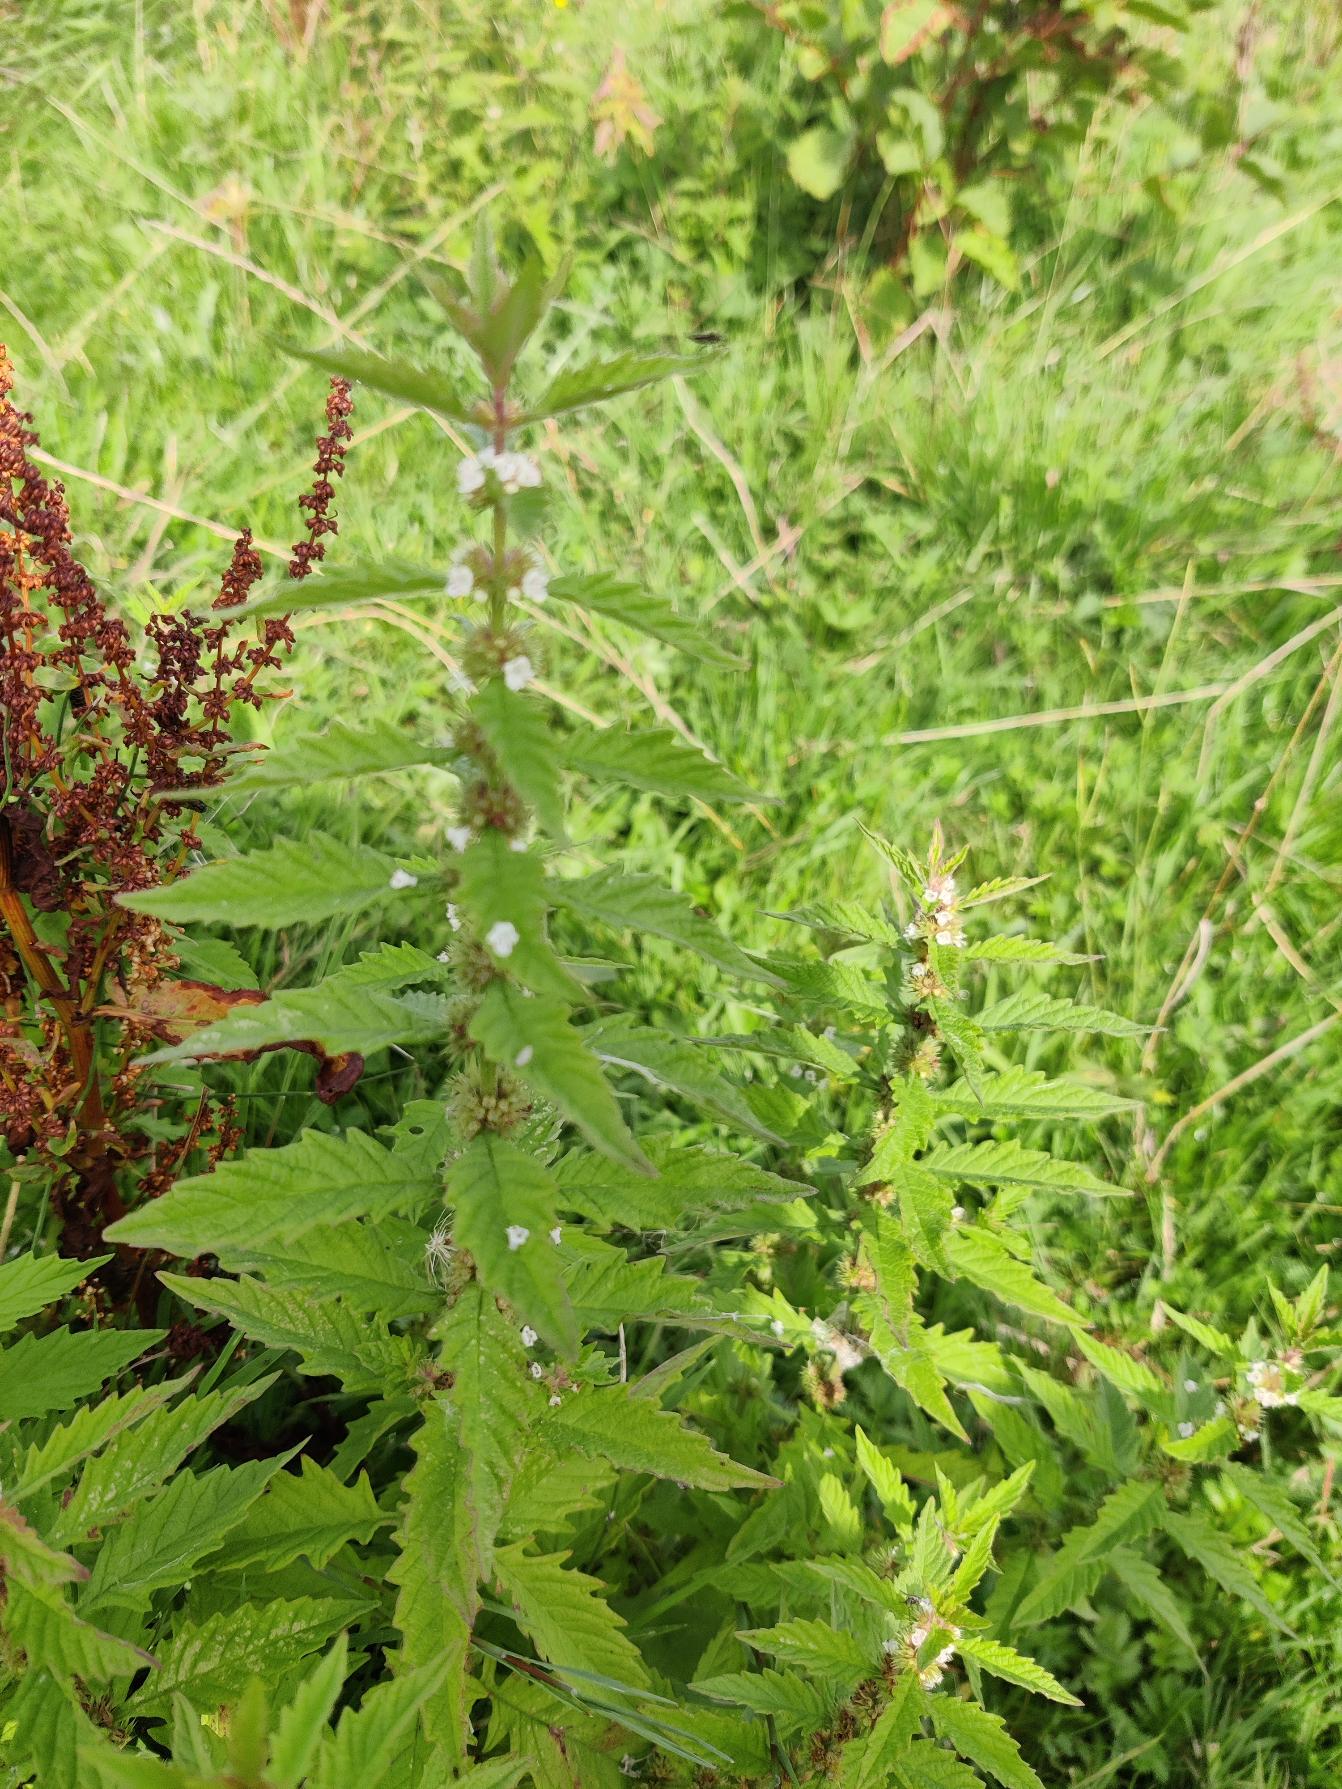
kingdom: Plantae
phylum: Tracheophyta
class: Magnoliopsida
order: Lamiales
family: Lamiaceae
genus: Lycopus
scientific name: Lycopus europaeus
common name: Sværtevæld
